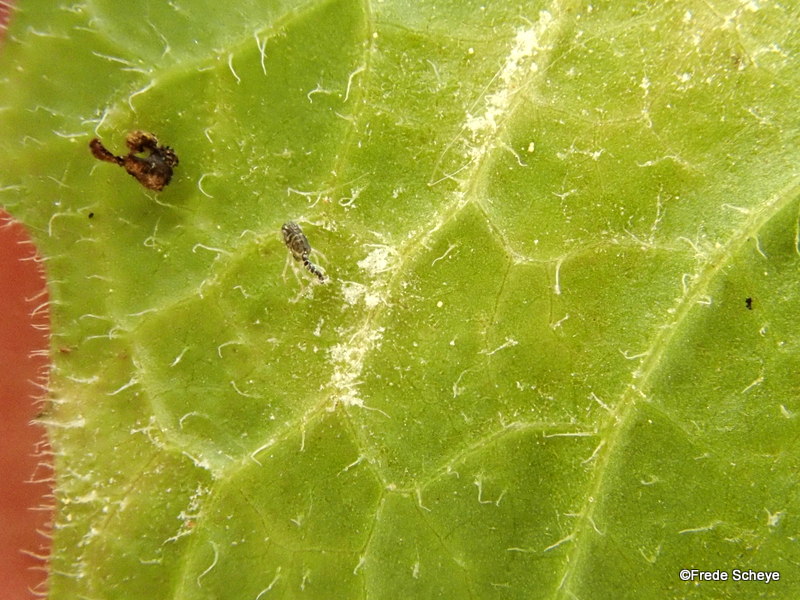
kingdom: Fungi
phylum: Ascomycota
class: Leotiomycetes
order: Helotiales
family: Erysiphaceae
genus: Golovinomyces
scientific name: Golovinomyces cichoracearum
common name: kurvblomst-meldug
